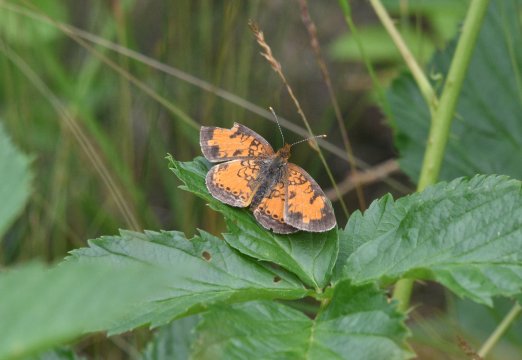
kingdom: Animalia
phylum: Arthropoda
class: Insecta
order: Lepidoptera
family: Nymphalidae
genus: Phyciodes
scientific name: Phyciodes tharos
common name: Northern Crescent
